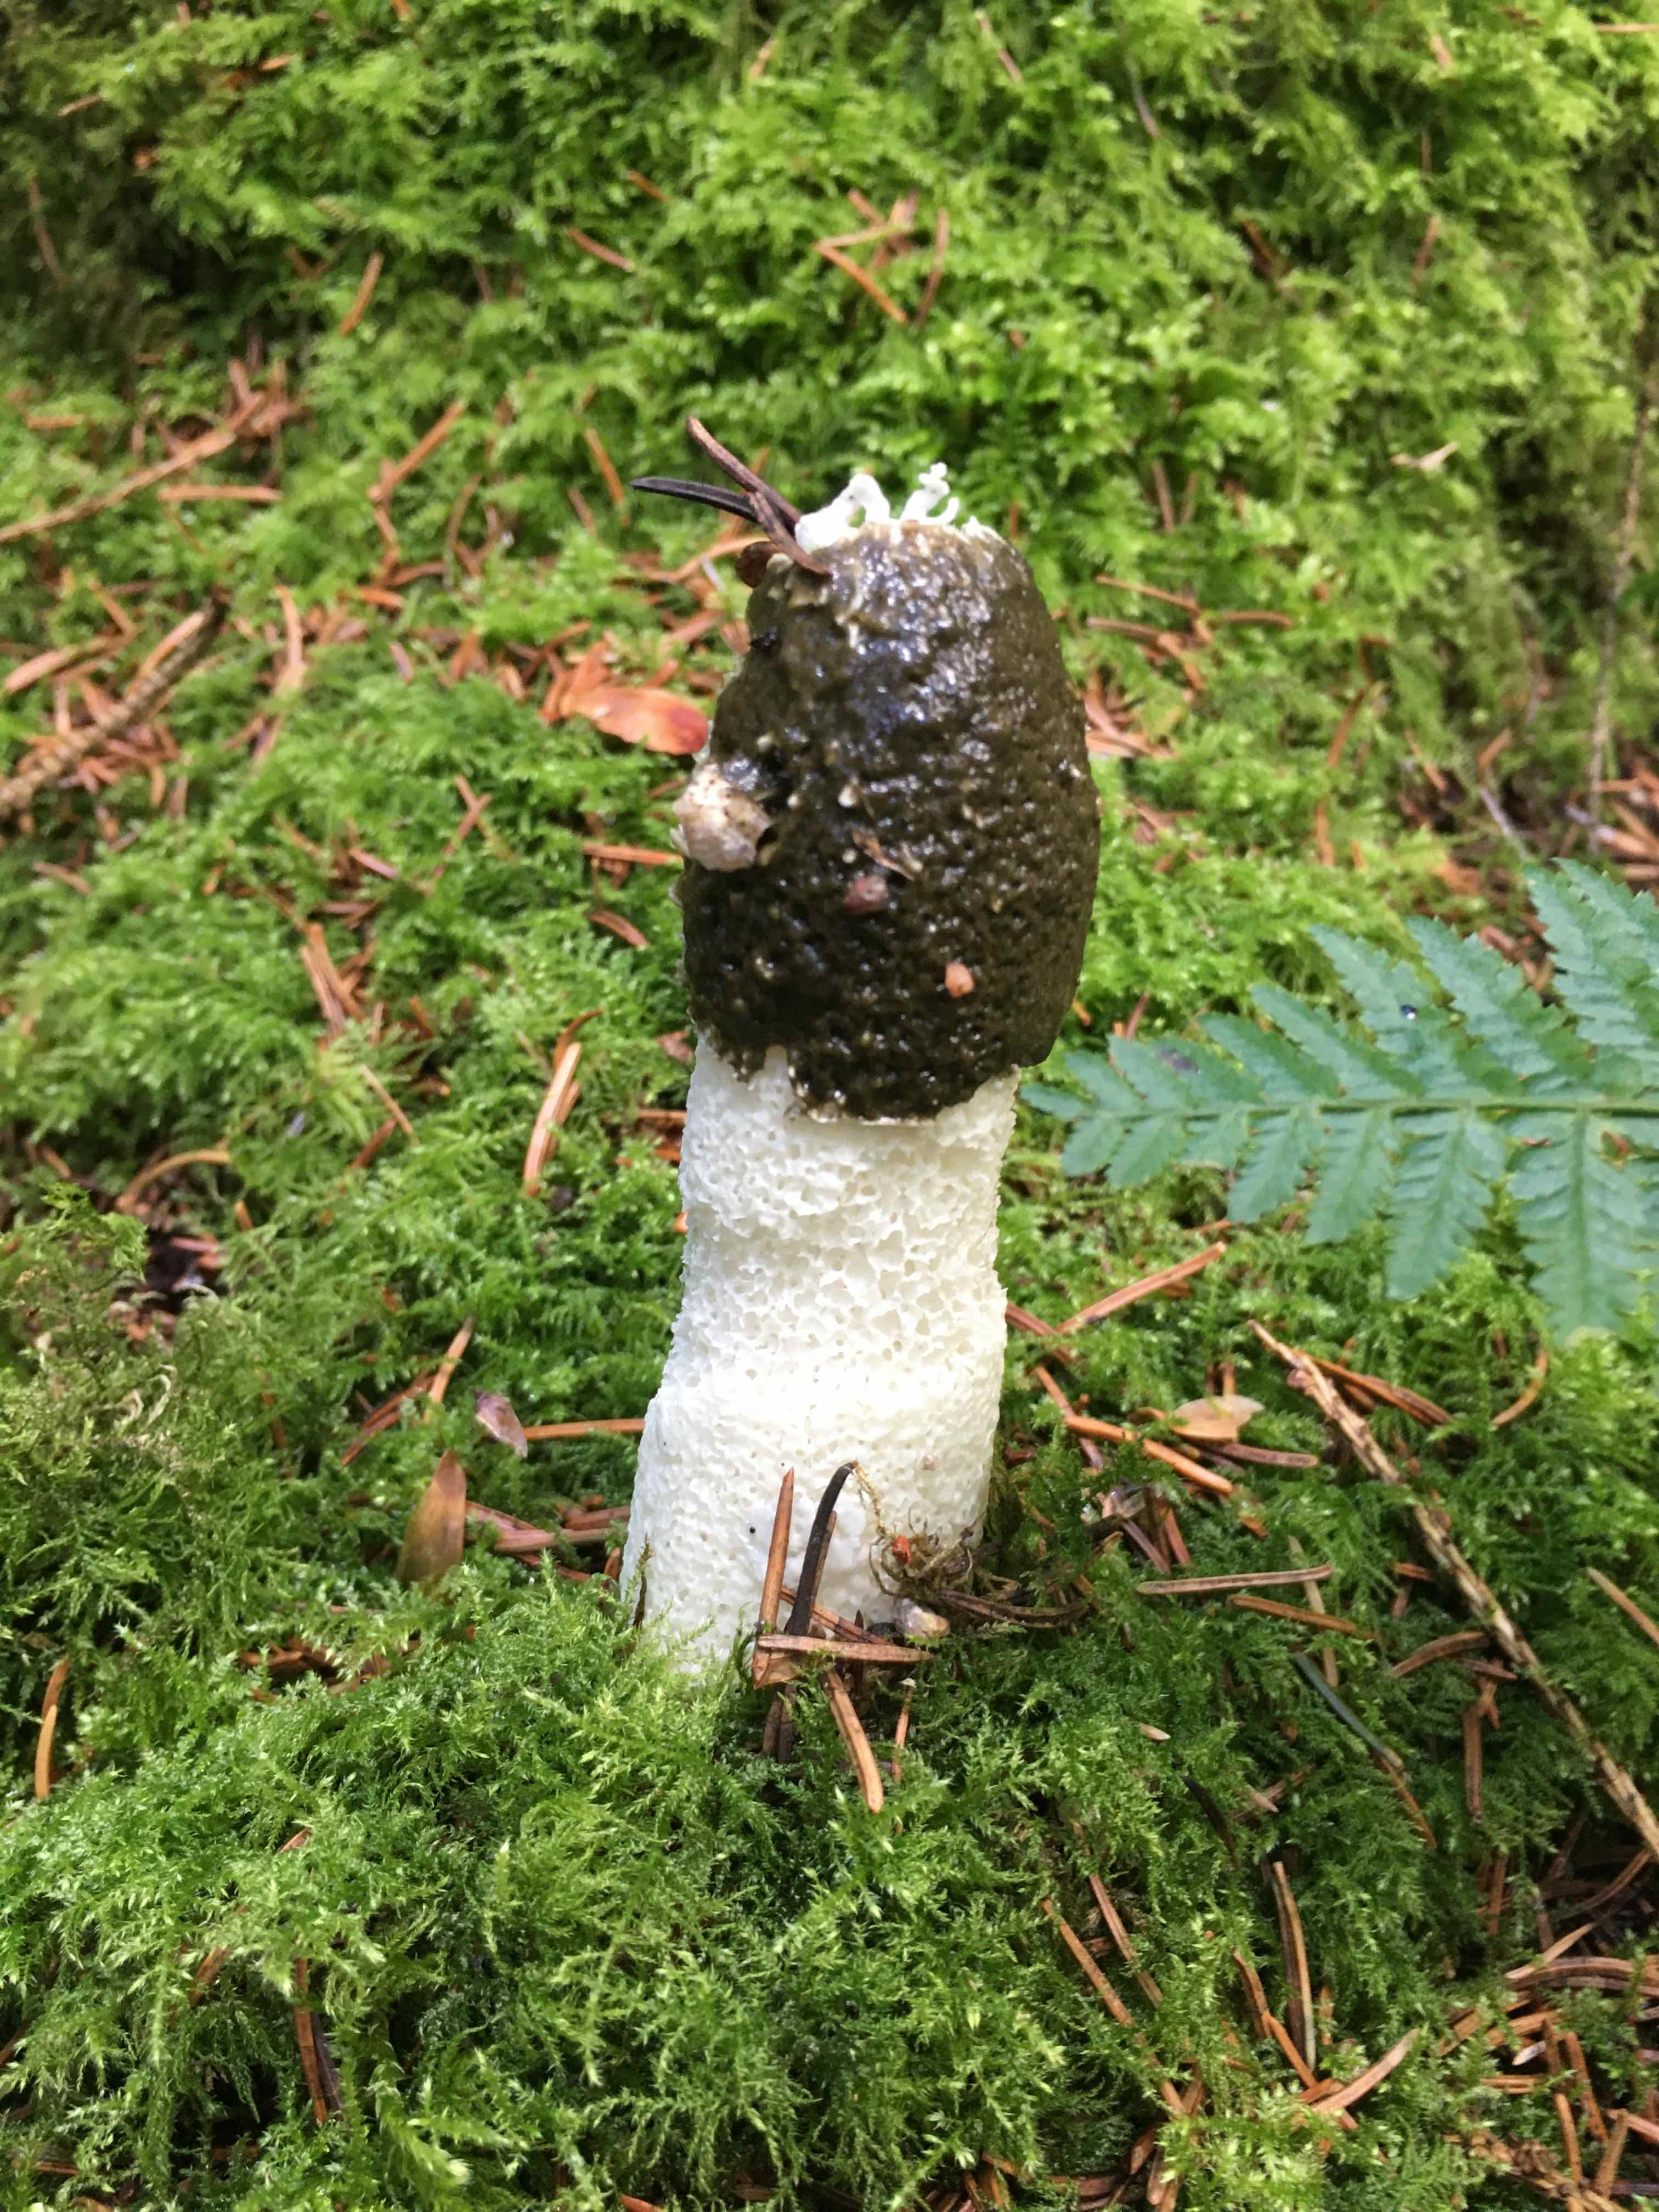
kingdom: Fungi
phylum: Basidiomycota
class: Agaricomycetes
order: Phallales
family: Phallaceae
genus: Phallus
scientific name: Phallus impudicus
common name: almindelig stinksvamp
